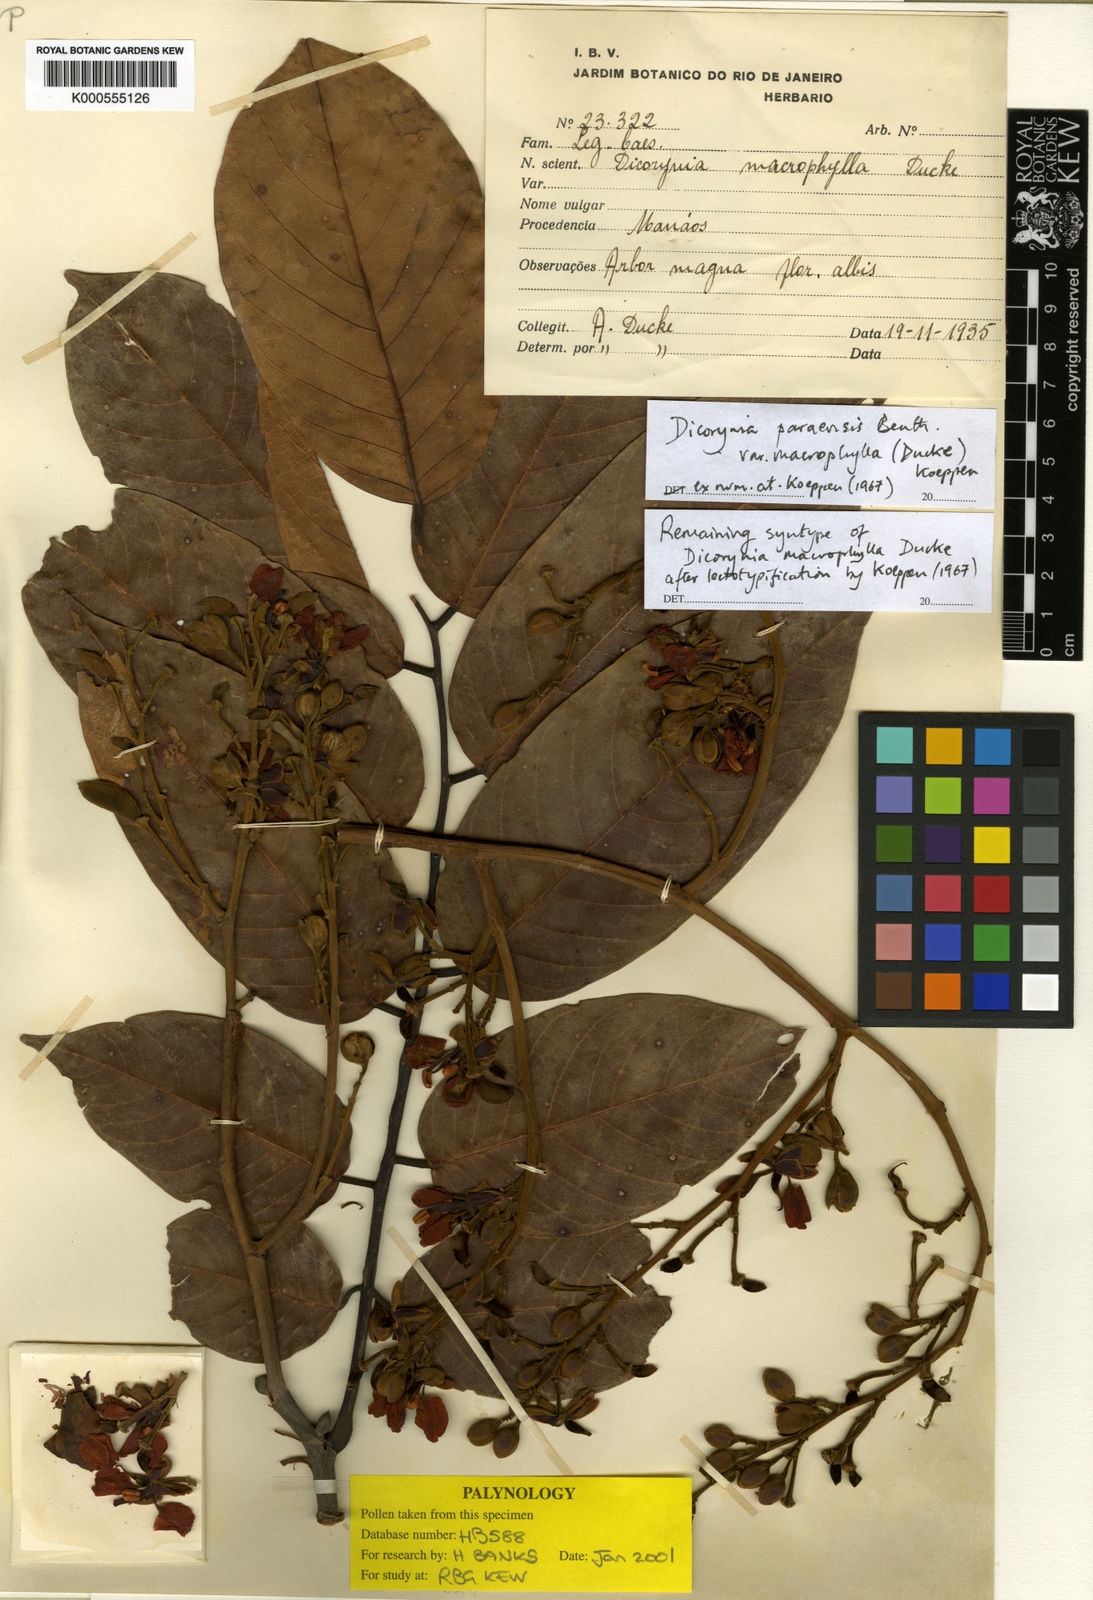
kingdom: Plantae
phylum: Tracheophyta
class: Magnoliopsida
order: Fabales
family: Fabaceae
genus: Dicorynia
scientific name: Dicorynia paraensis
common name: Angelique
